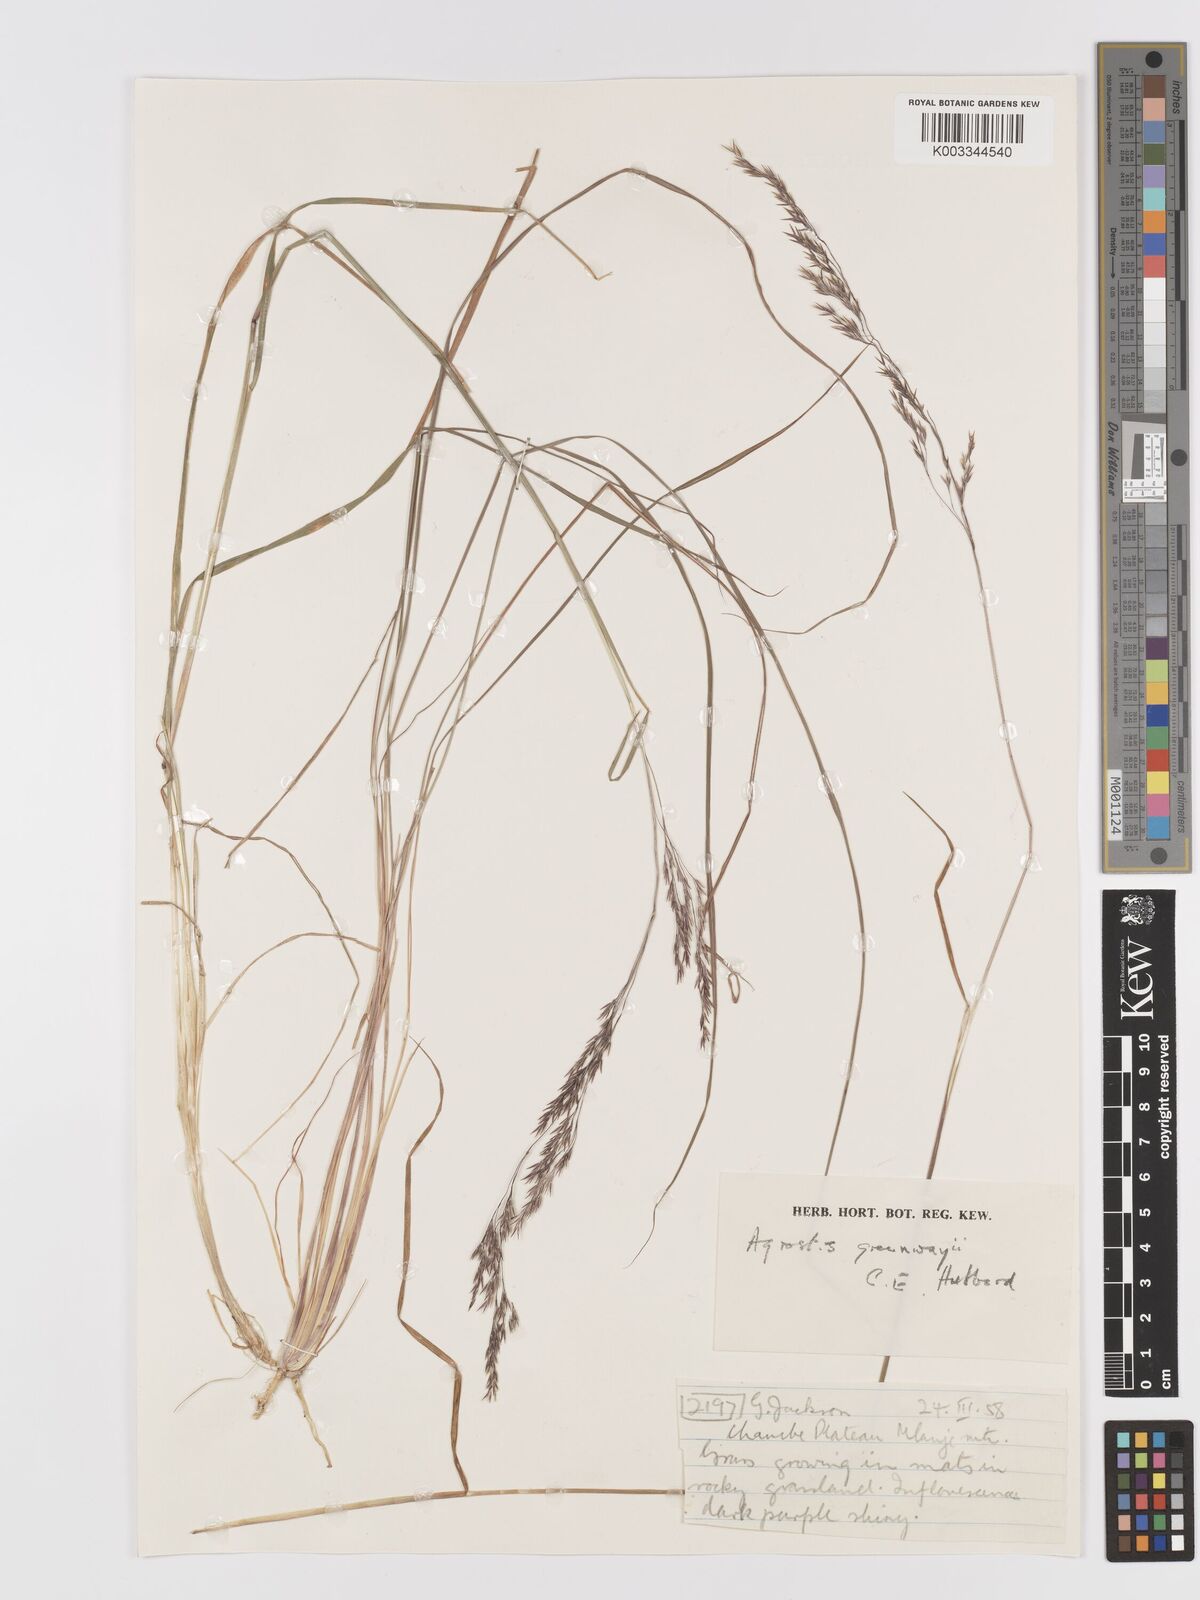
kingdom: Plantae
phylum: Tracheophyta
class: Liliopsida
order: Poales
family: Poaceae
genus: Agrostis
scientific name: Agrostis producta
